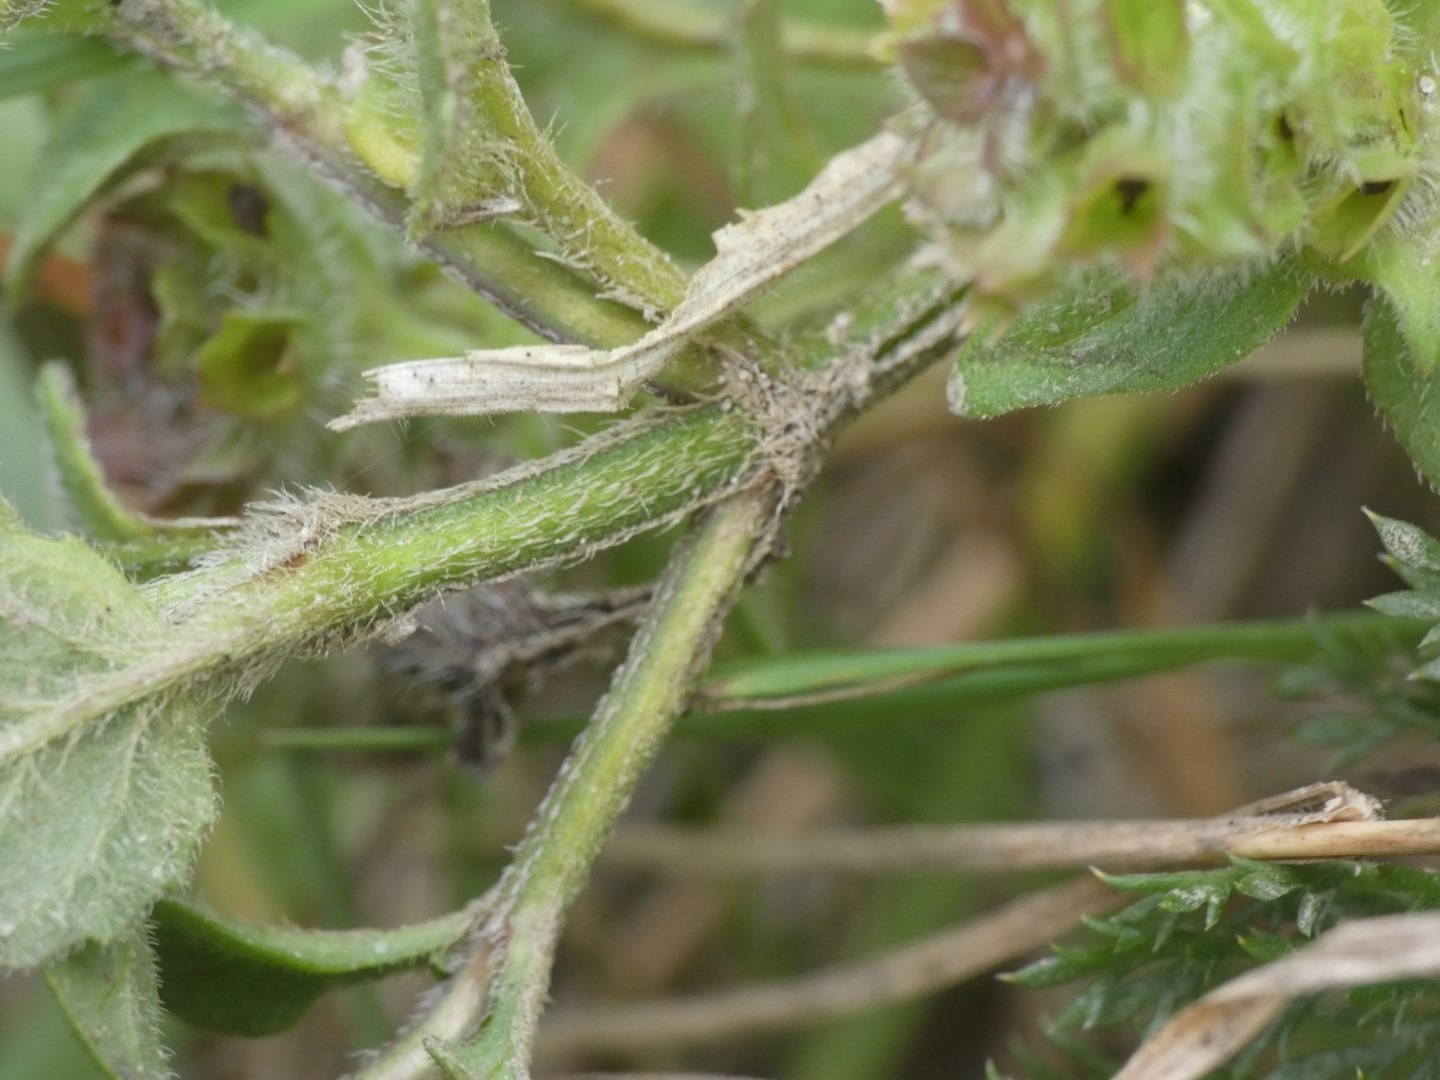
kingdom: Plantae
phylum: Tracheophyta
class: Magnoliopsida
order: Lamiales
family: Lamiaceae
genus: Prunella
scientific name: Prunella vulgaris
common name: Almindelig brunelle
